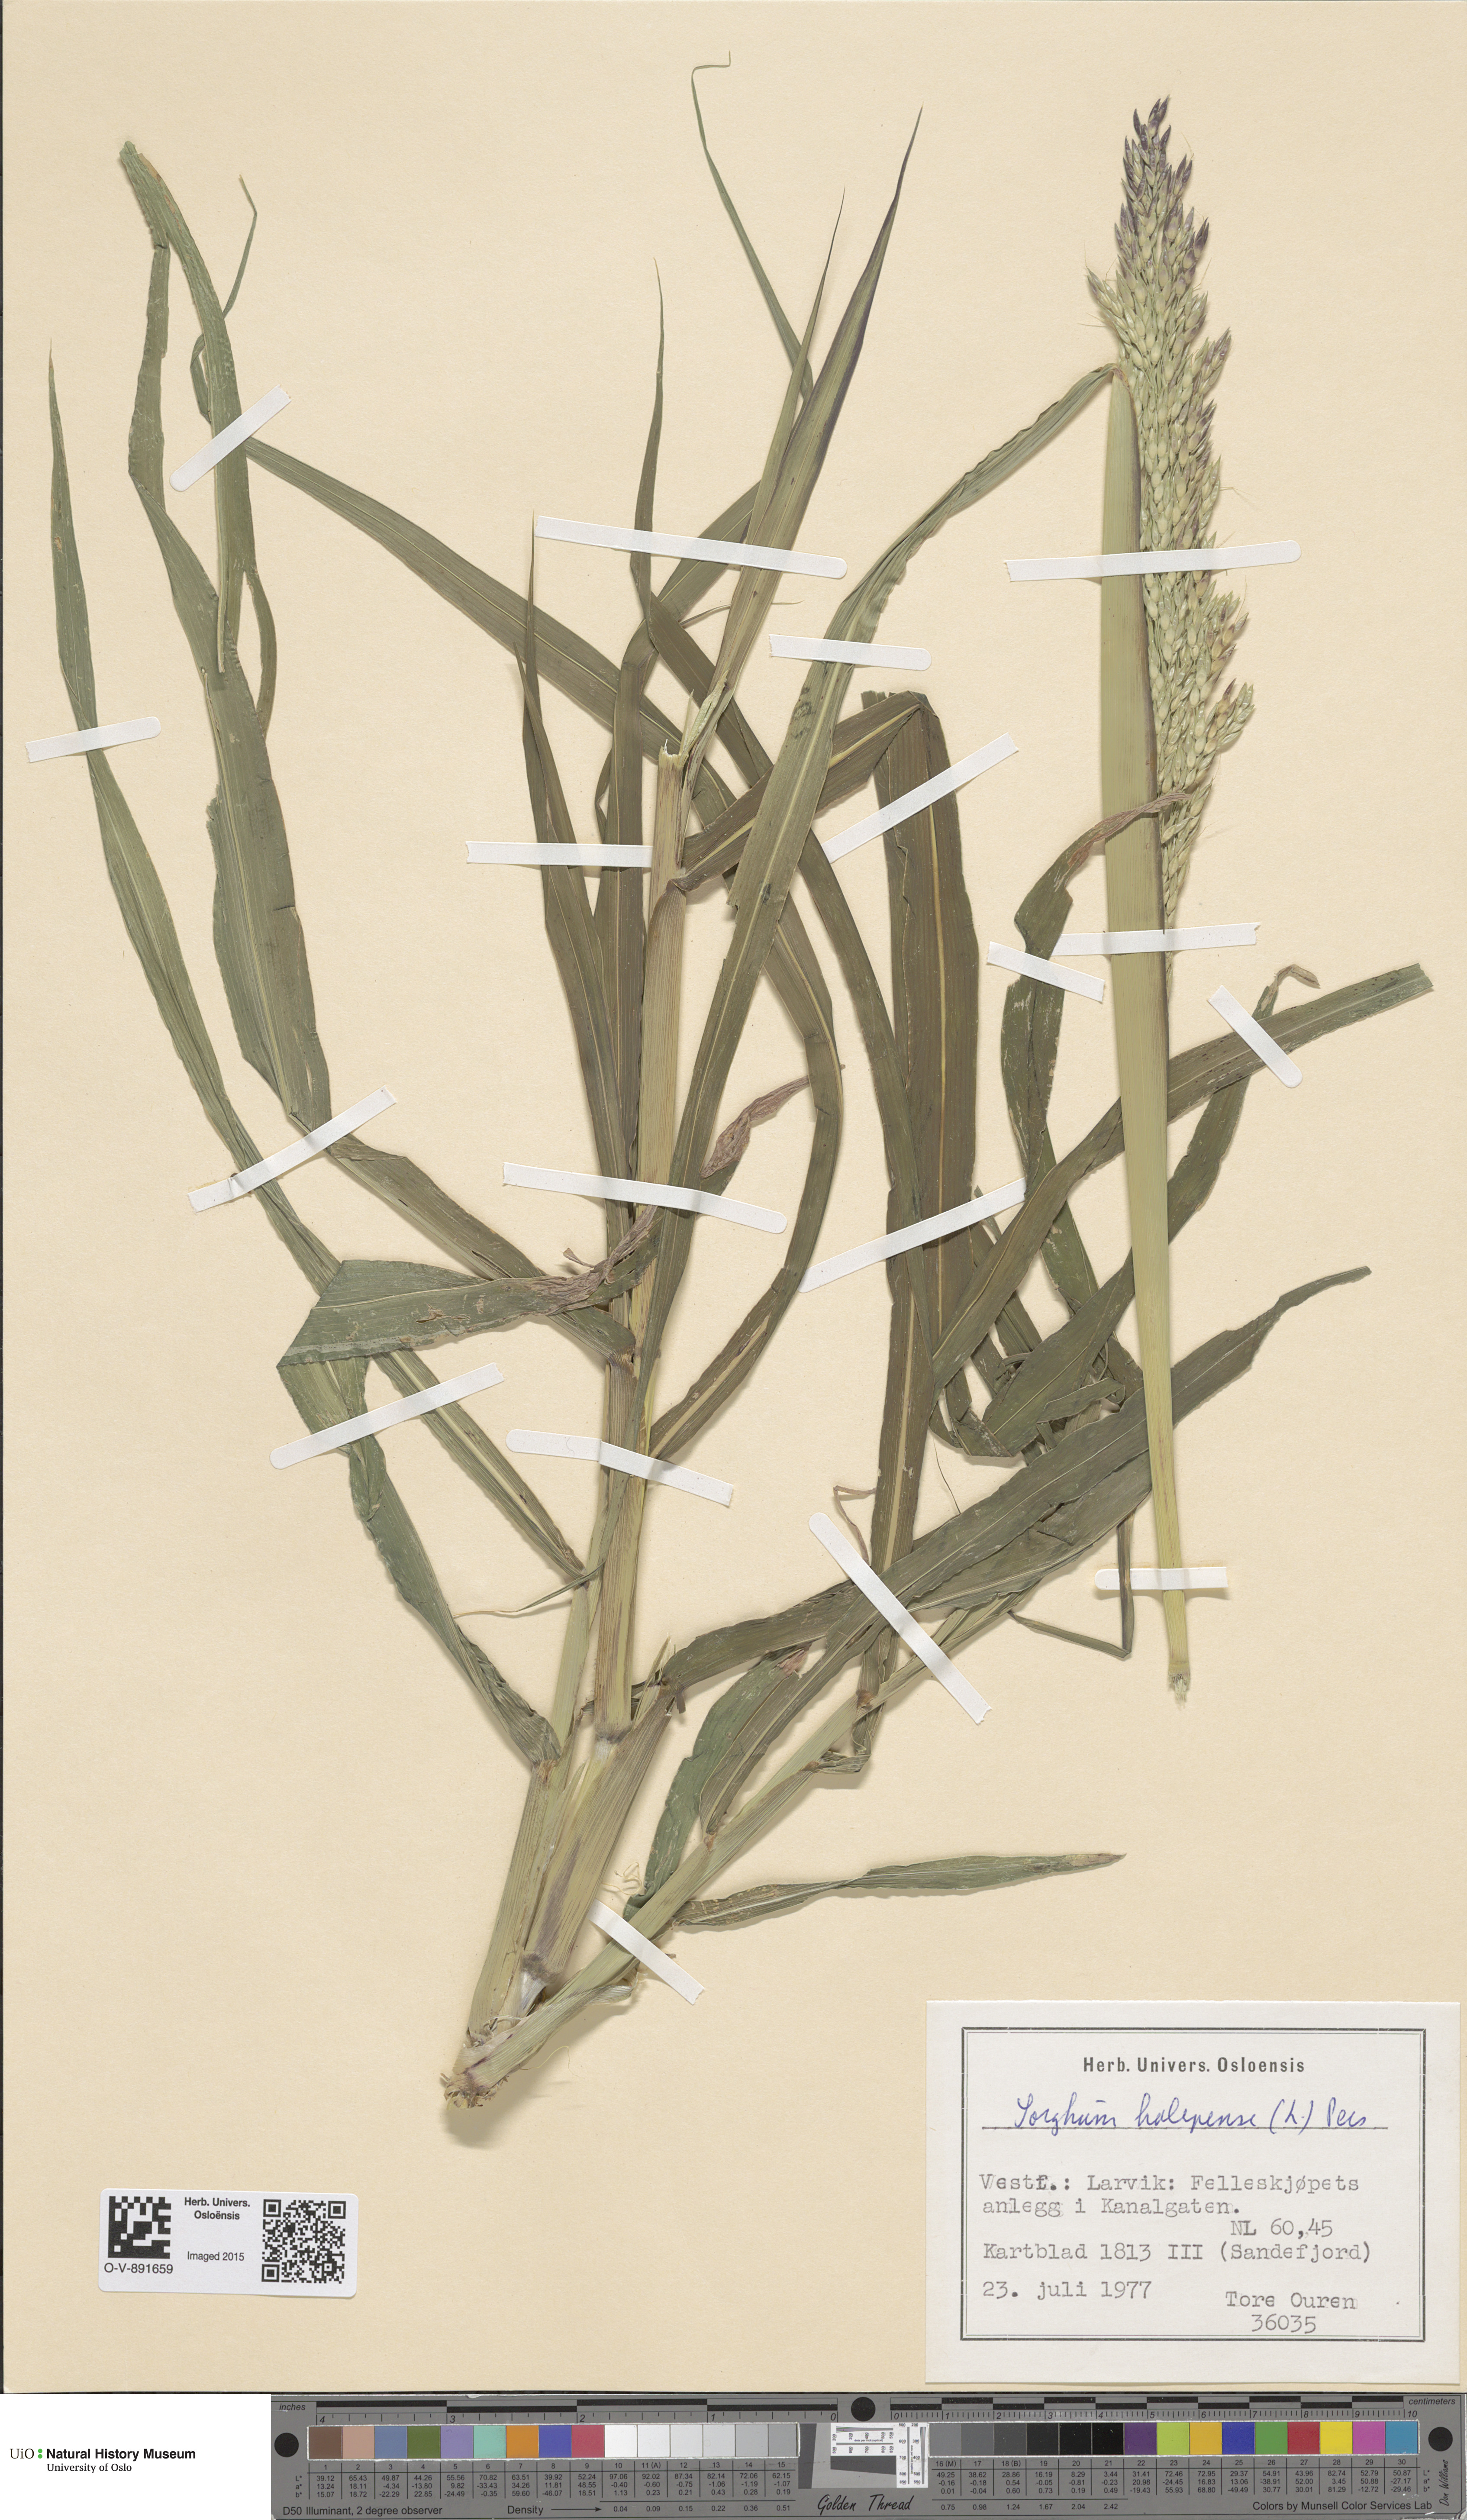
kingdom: Plantae
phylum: Tracheophyta
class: Liliopsida
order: Poales
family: Poaceae
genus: Sorghum
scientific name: Sorghum halepense
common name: Johnson-grass
